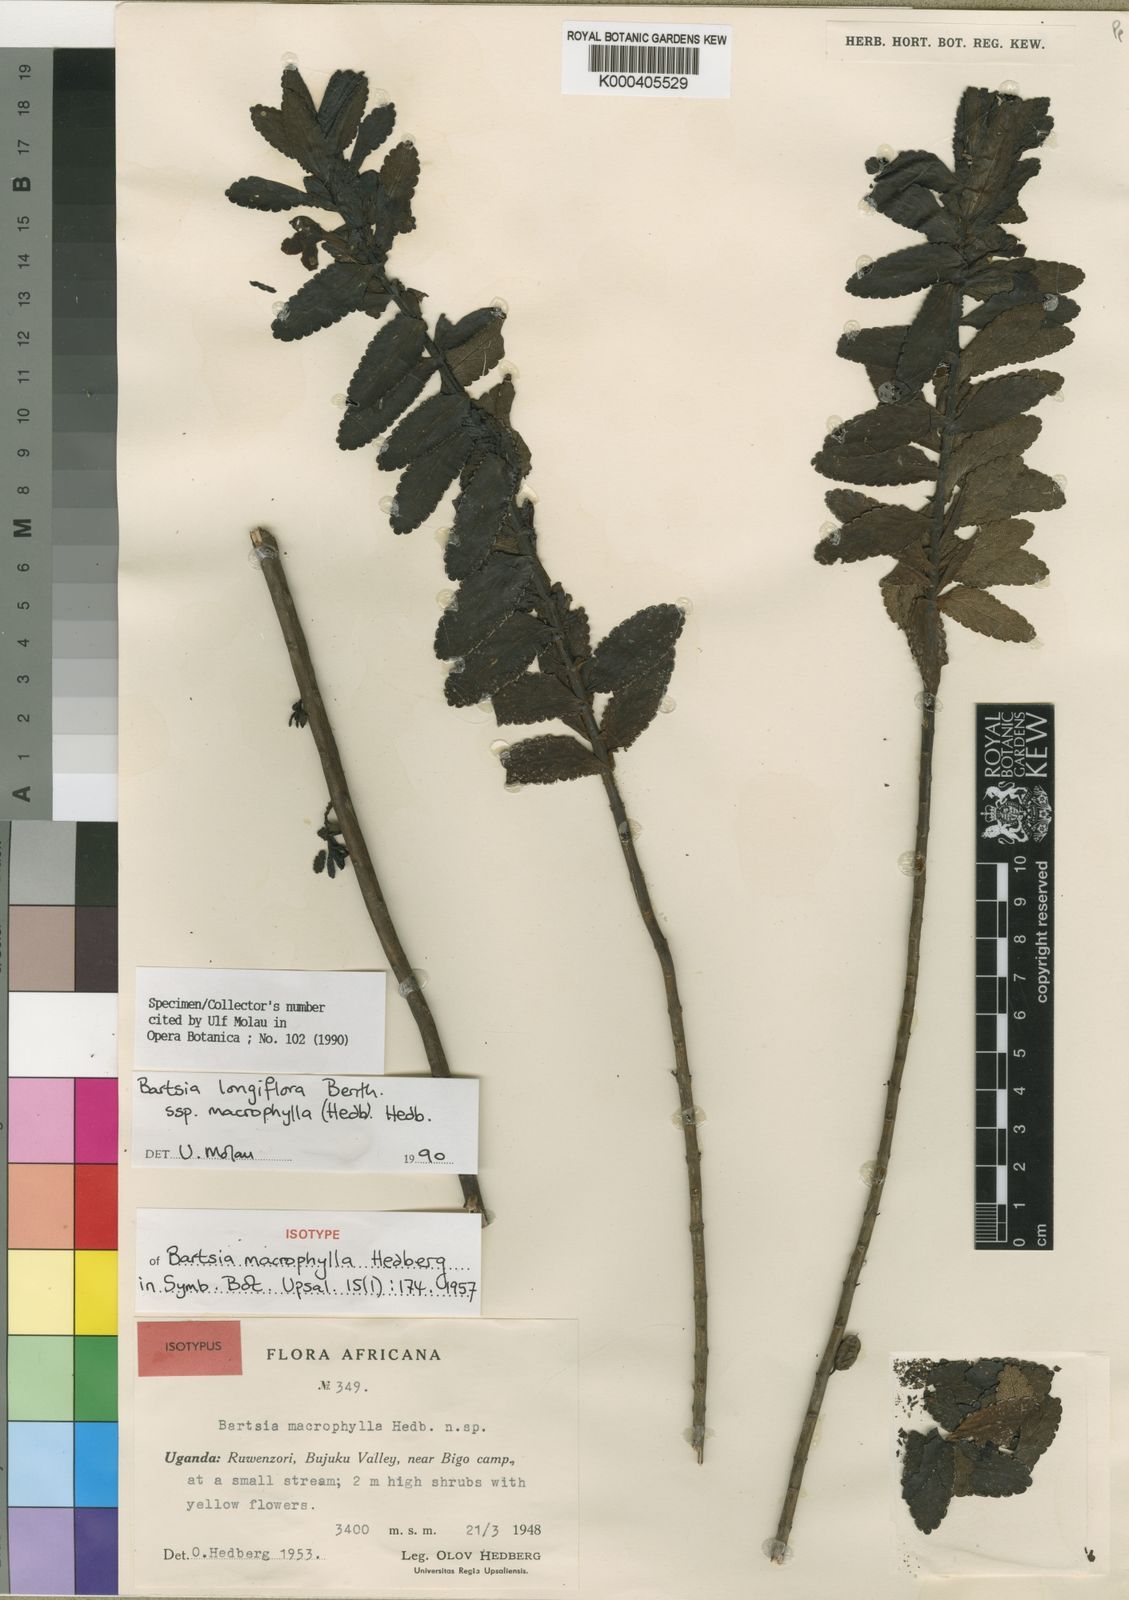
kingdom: Plantae
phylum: Tracheophyta
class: Magnoliopsida
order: Lamiales
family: Orobanchaceae
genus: Hedbergia
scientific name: Hedbergia longiflora
